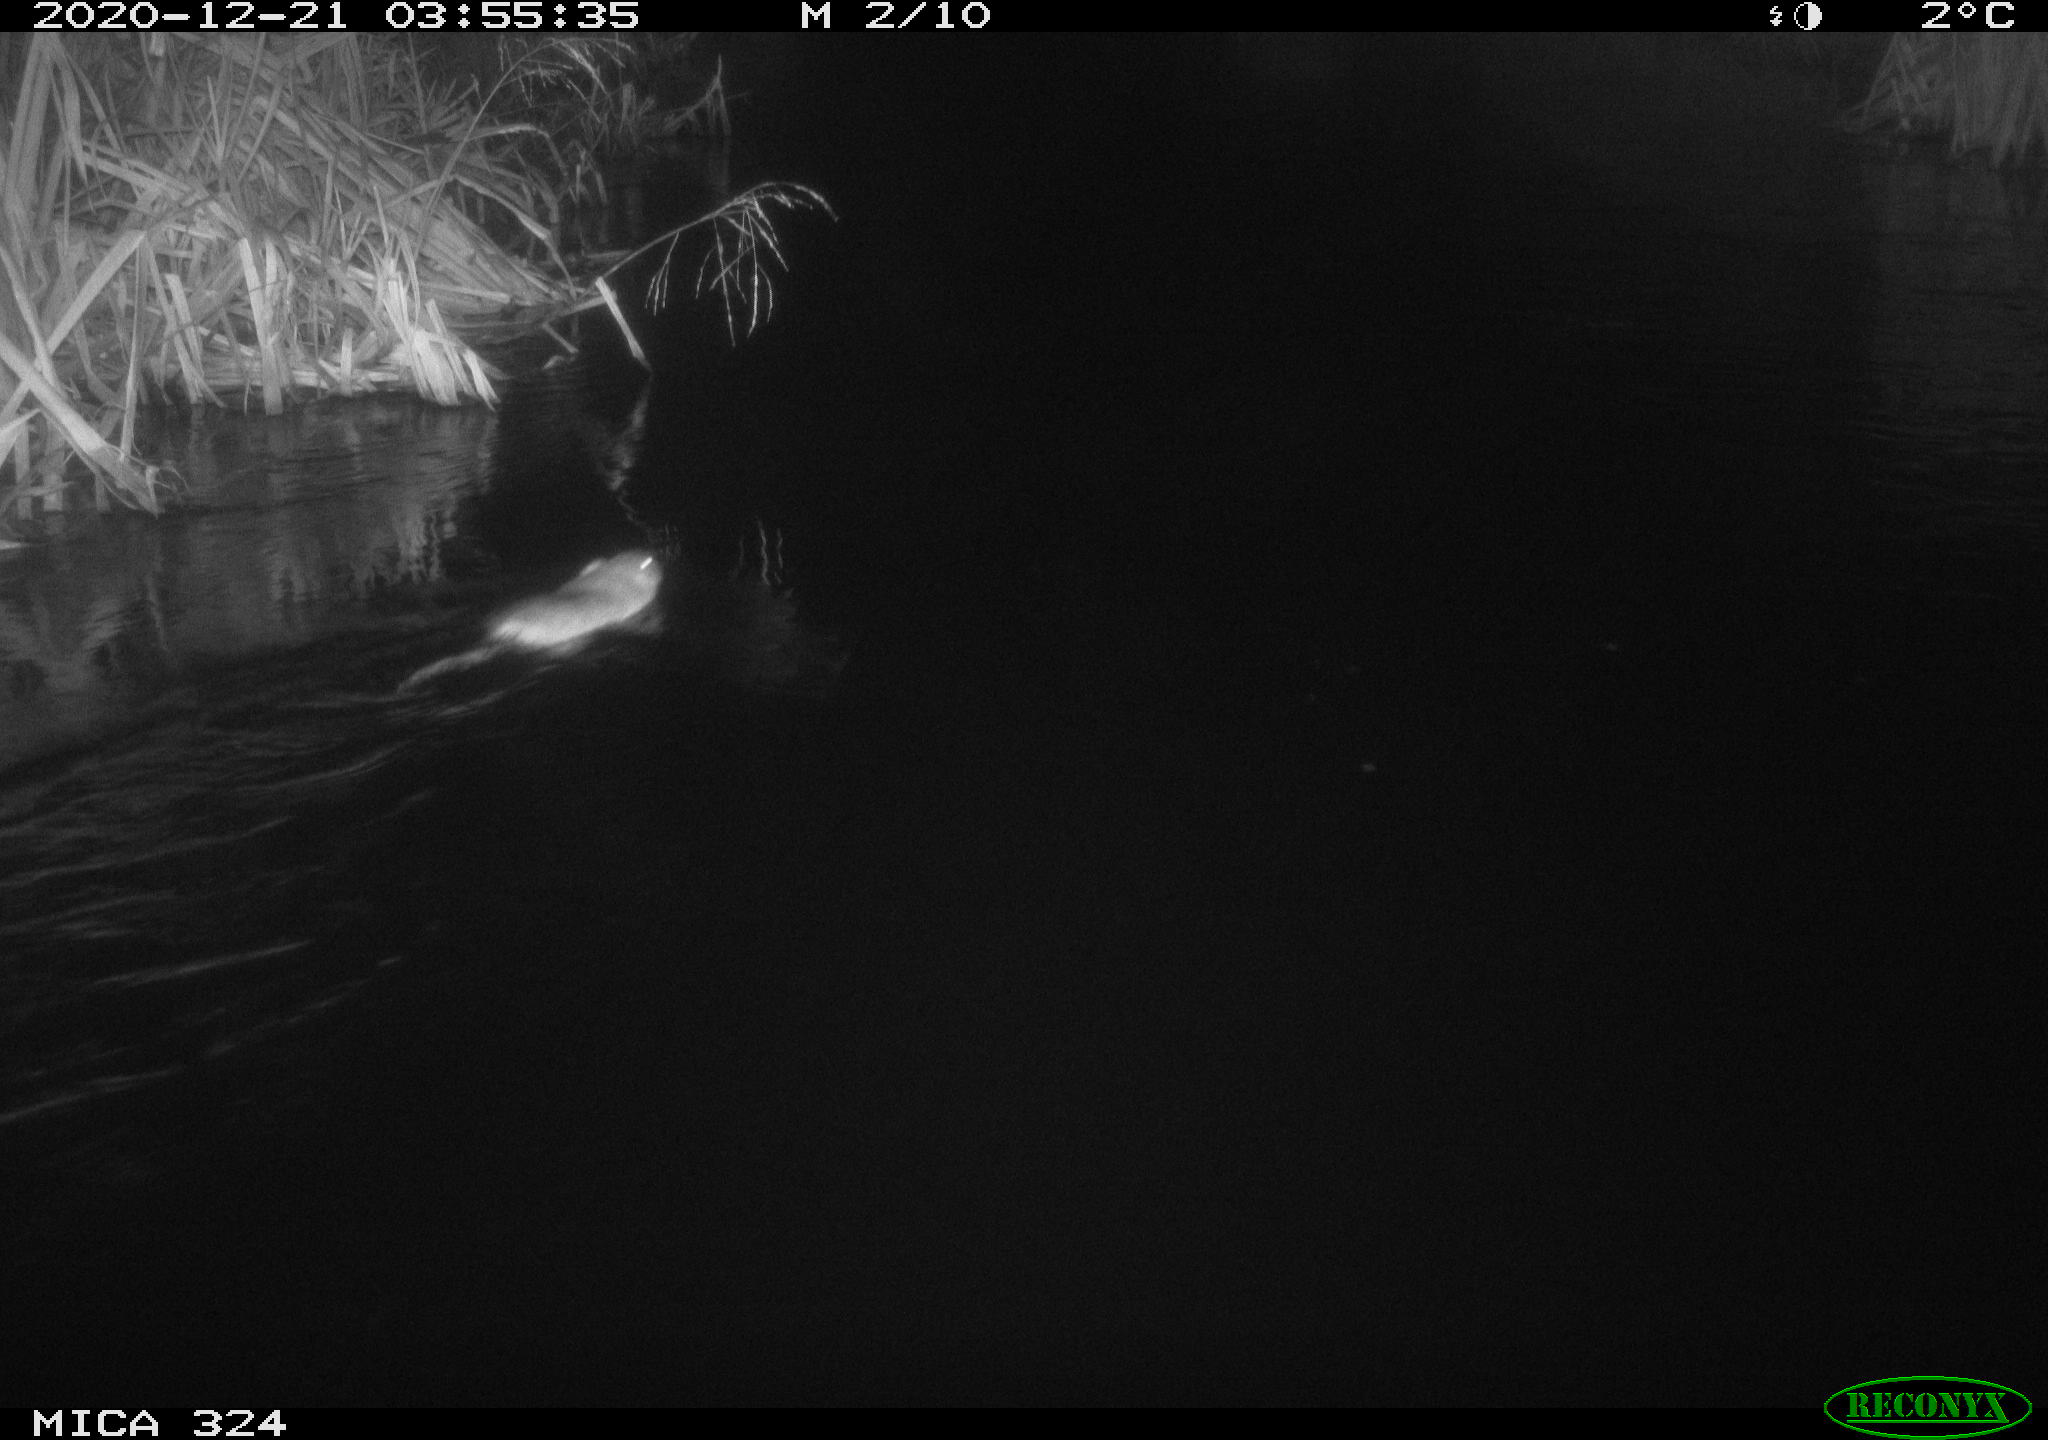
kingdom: Animalia
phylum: Chordata
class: Mammalia
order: Rodentia
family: Cricetidae
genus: Ondatra
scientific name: Ondatra zibethicus
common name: Muskrat
